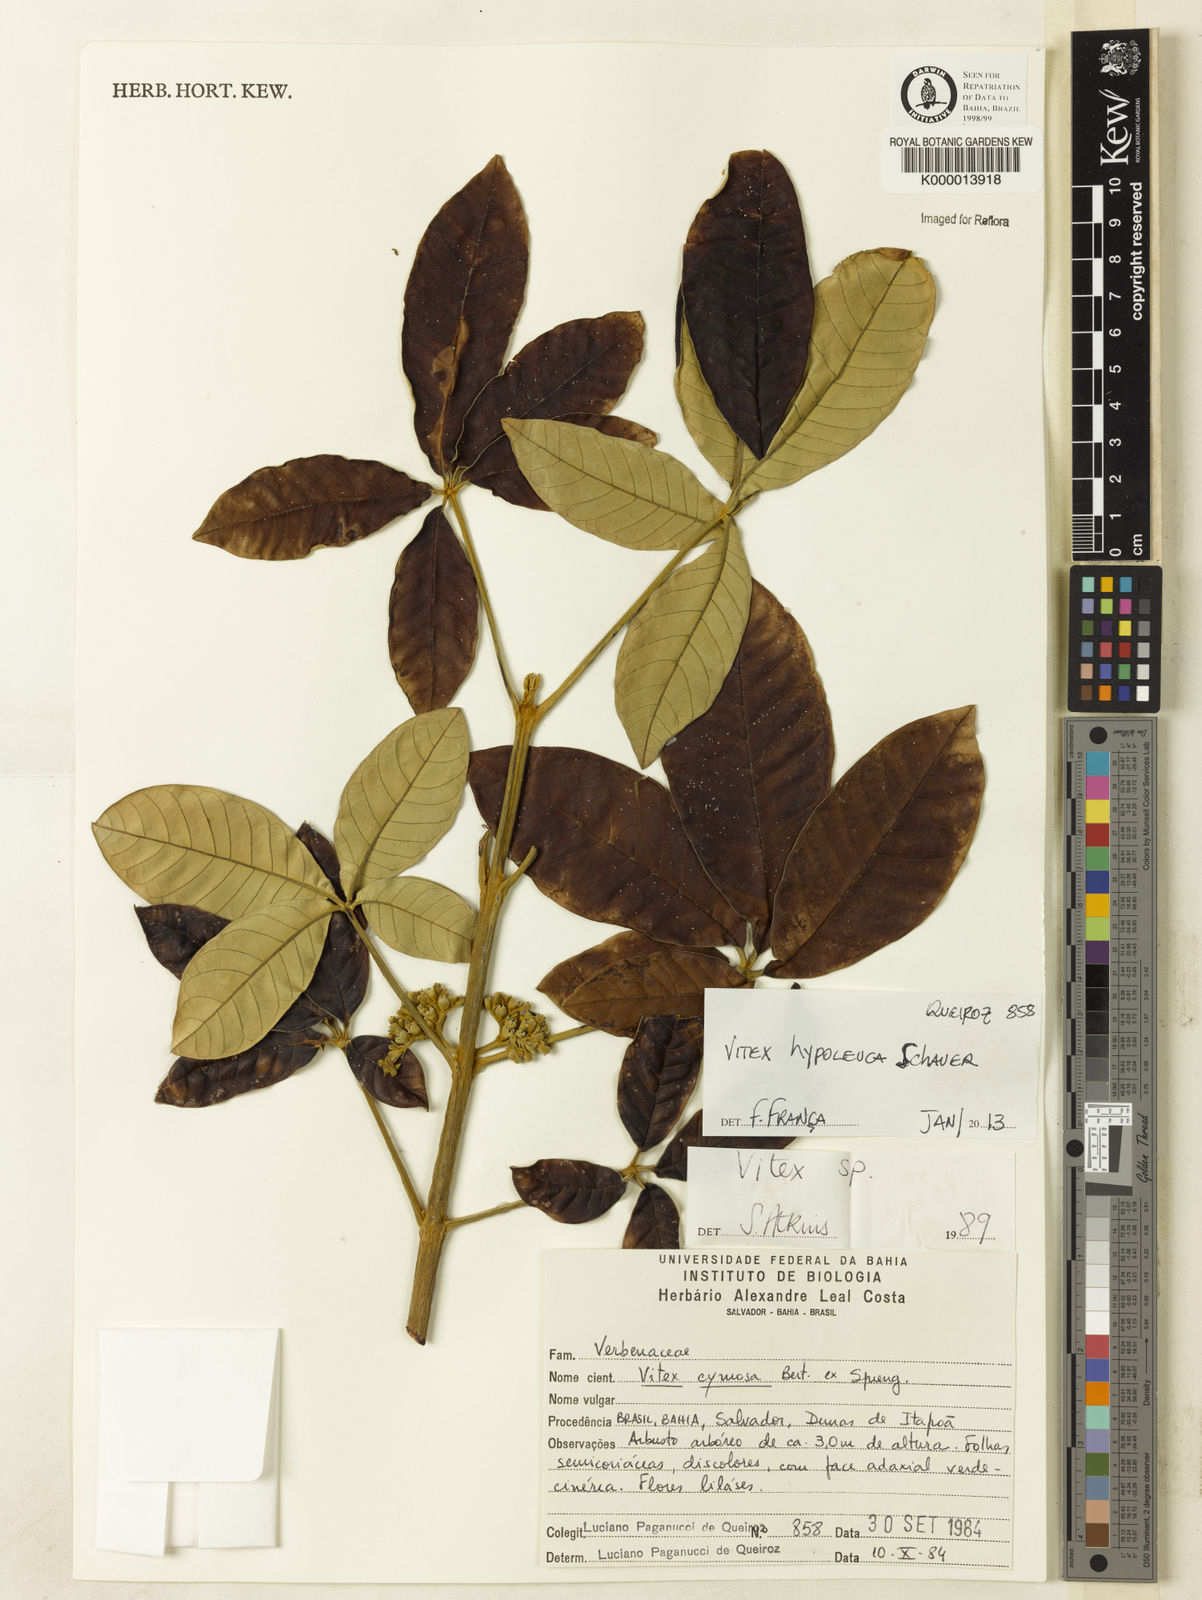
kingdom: Plantae
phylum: Tracheophyta
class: Magnoliopsida
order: Lamiales
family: Lamiaceae
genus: Vitex
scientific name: Vitex hypoleuca
